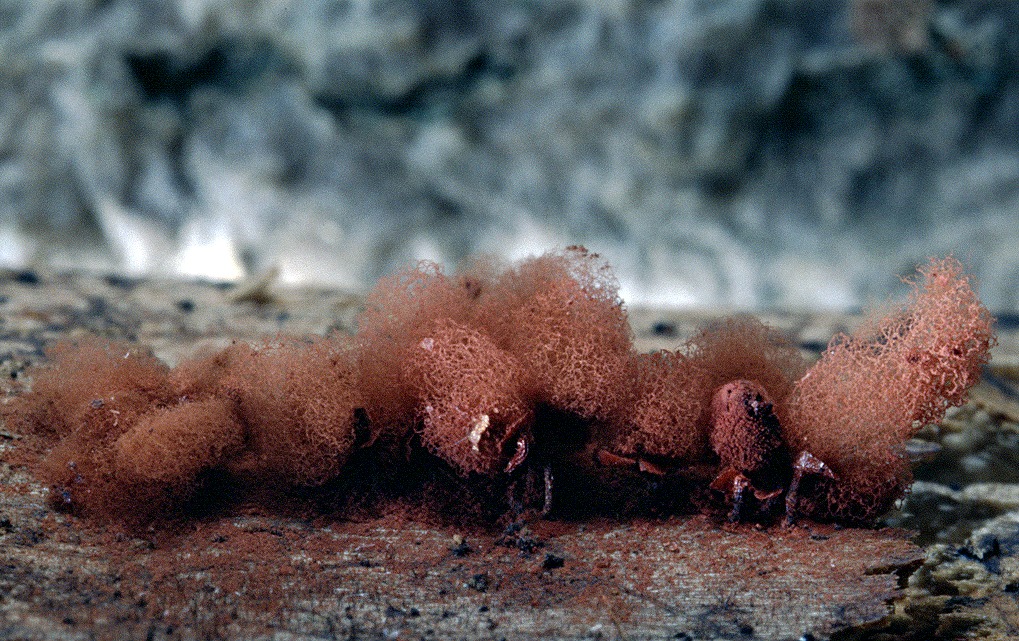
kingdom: Protozoa
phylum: Mycetozoa
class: Myxomycetes
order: Trichiales
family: Arcyriaceae
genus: Arcyria
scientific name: Arcyria denudata
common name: karminrød skålsvøb
